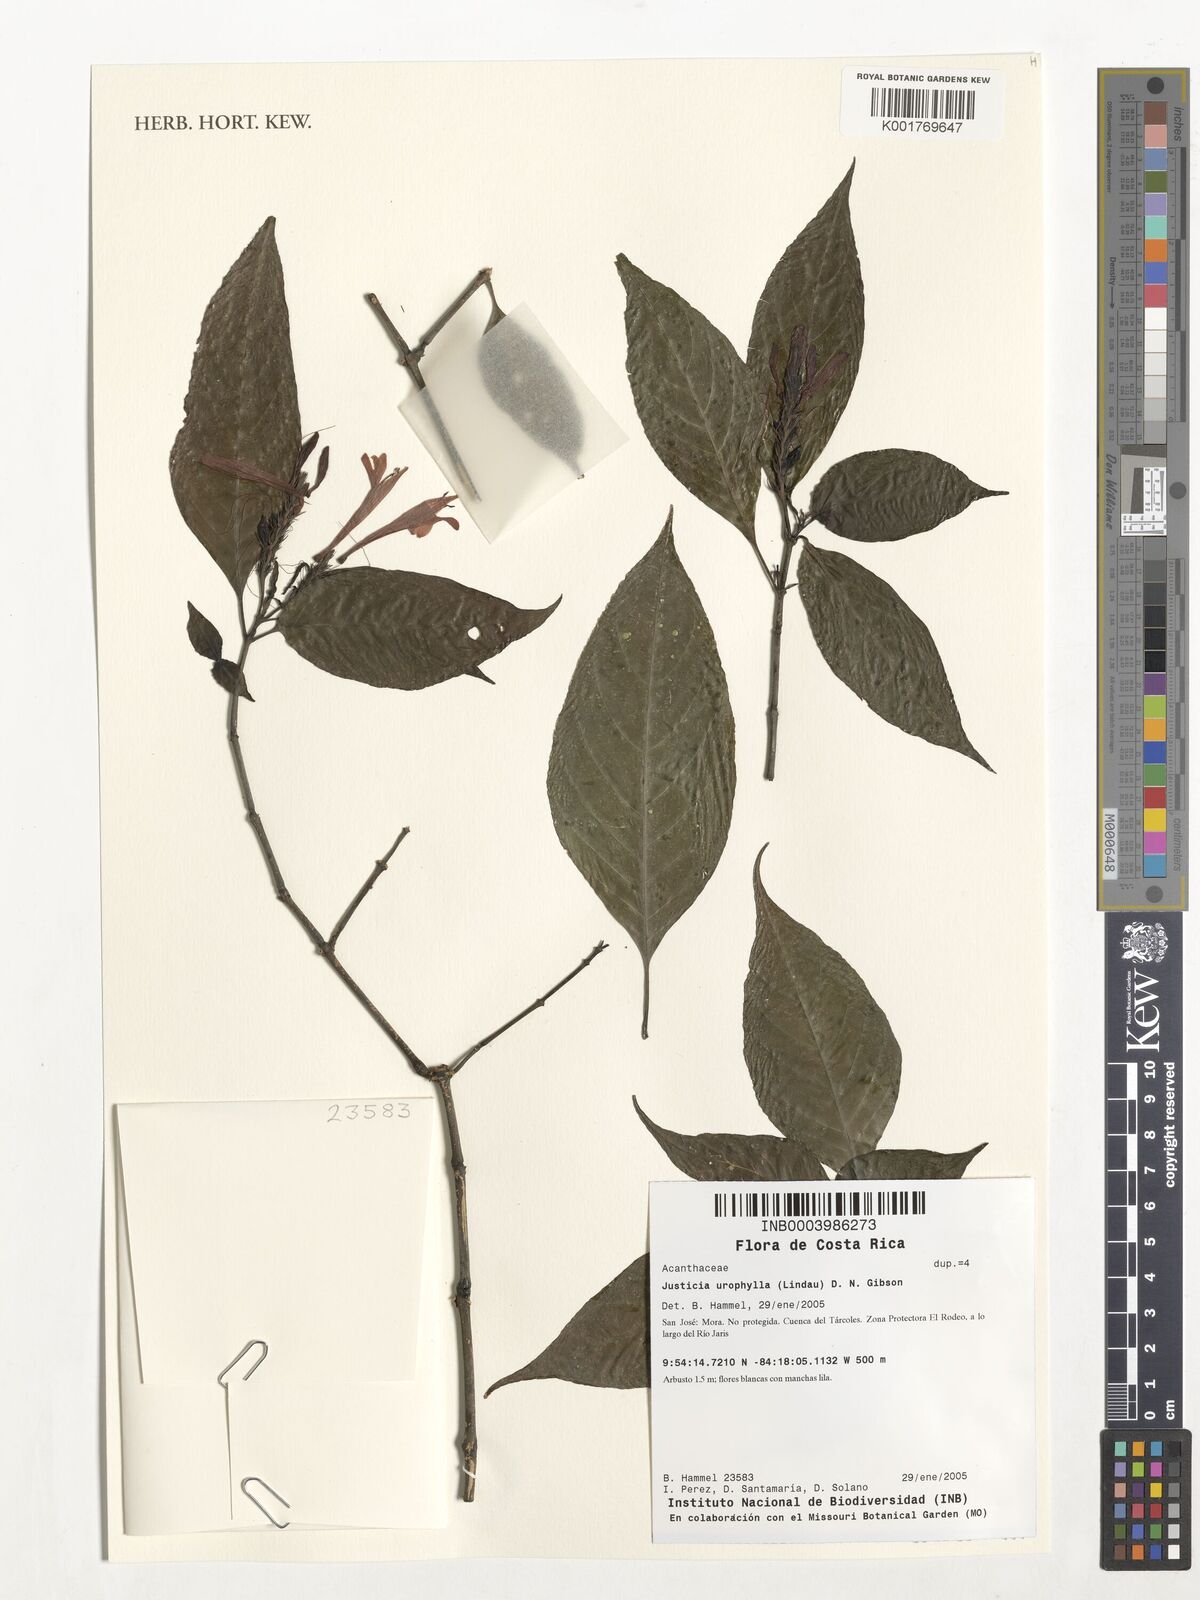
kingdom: Plantae
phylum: Tracheophyta
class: Magnoliopsida
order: Lamiales
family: Acanthaceae
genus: Justicia
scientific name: Justicia urophylla
